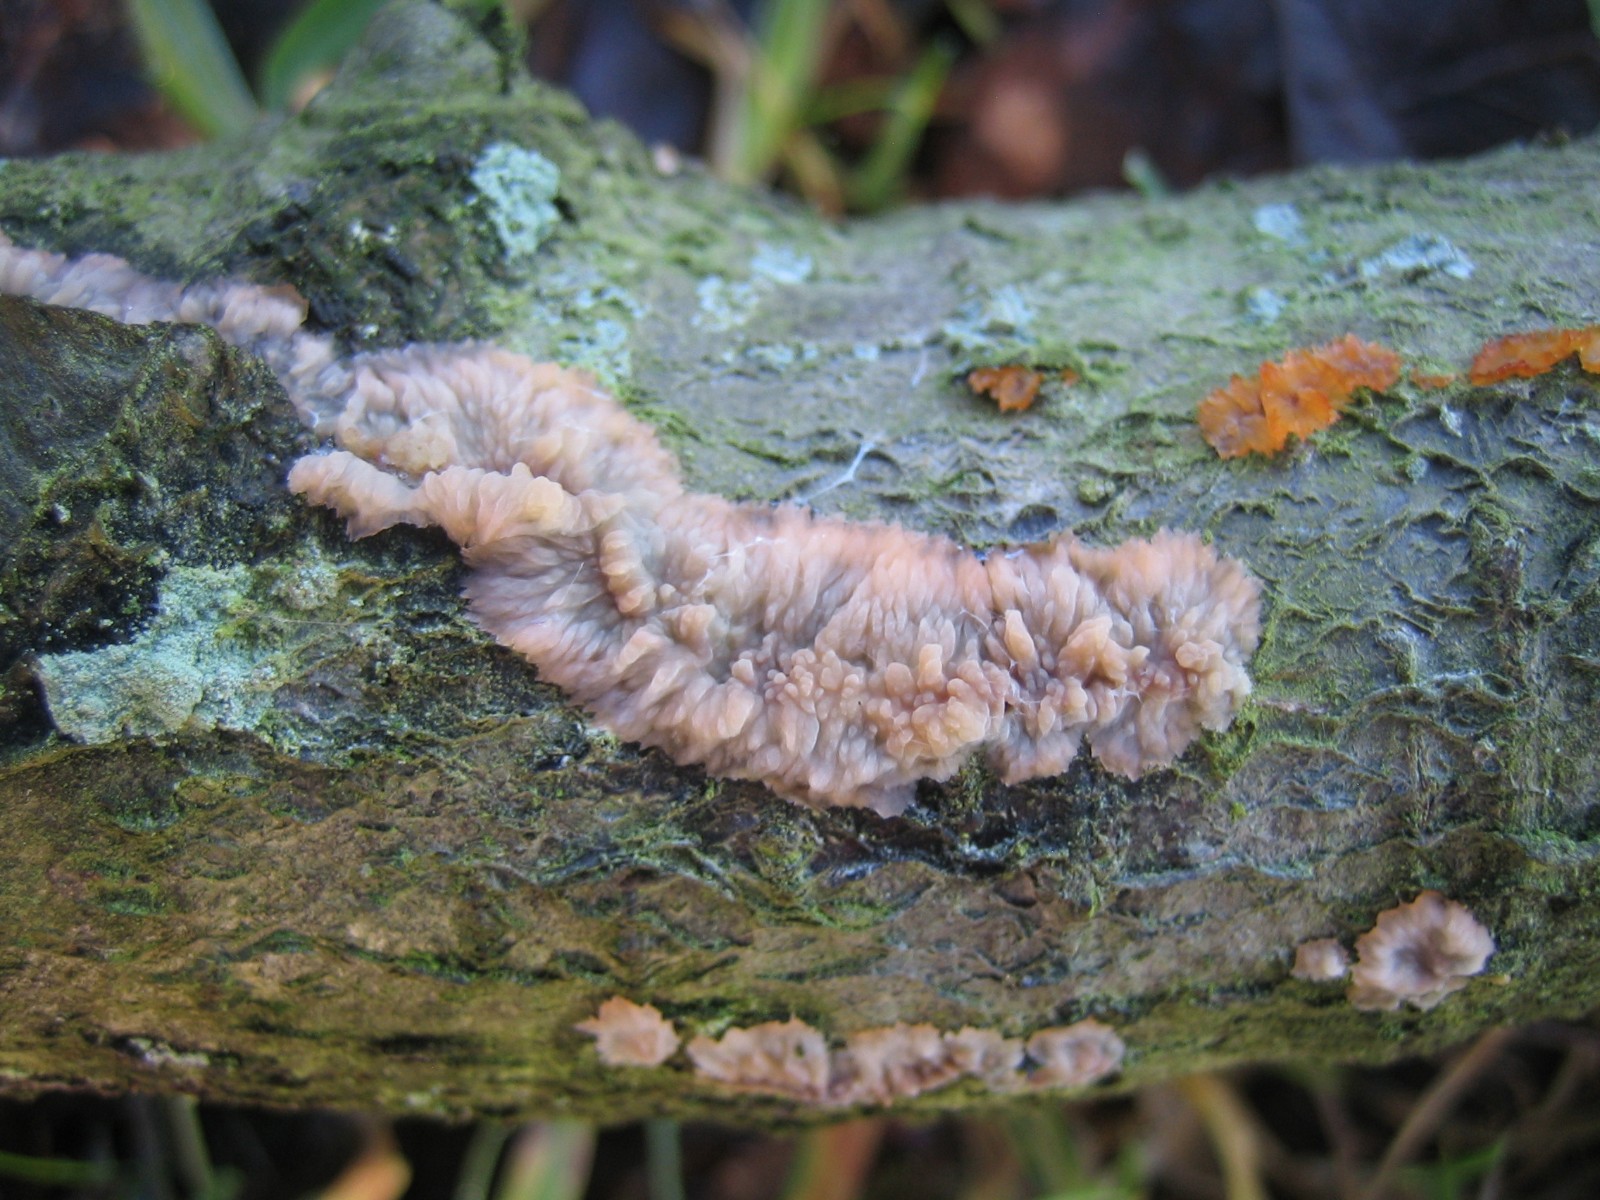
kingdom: Fungi
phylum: Basidiomycota
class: Agaricomycetes
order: Polyporales
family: Meruliaceae
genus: Phlebia
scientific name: Phlebia radiata
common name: stråle-åresvamp
